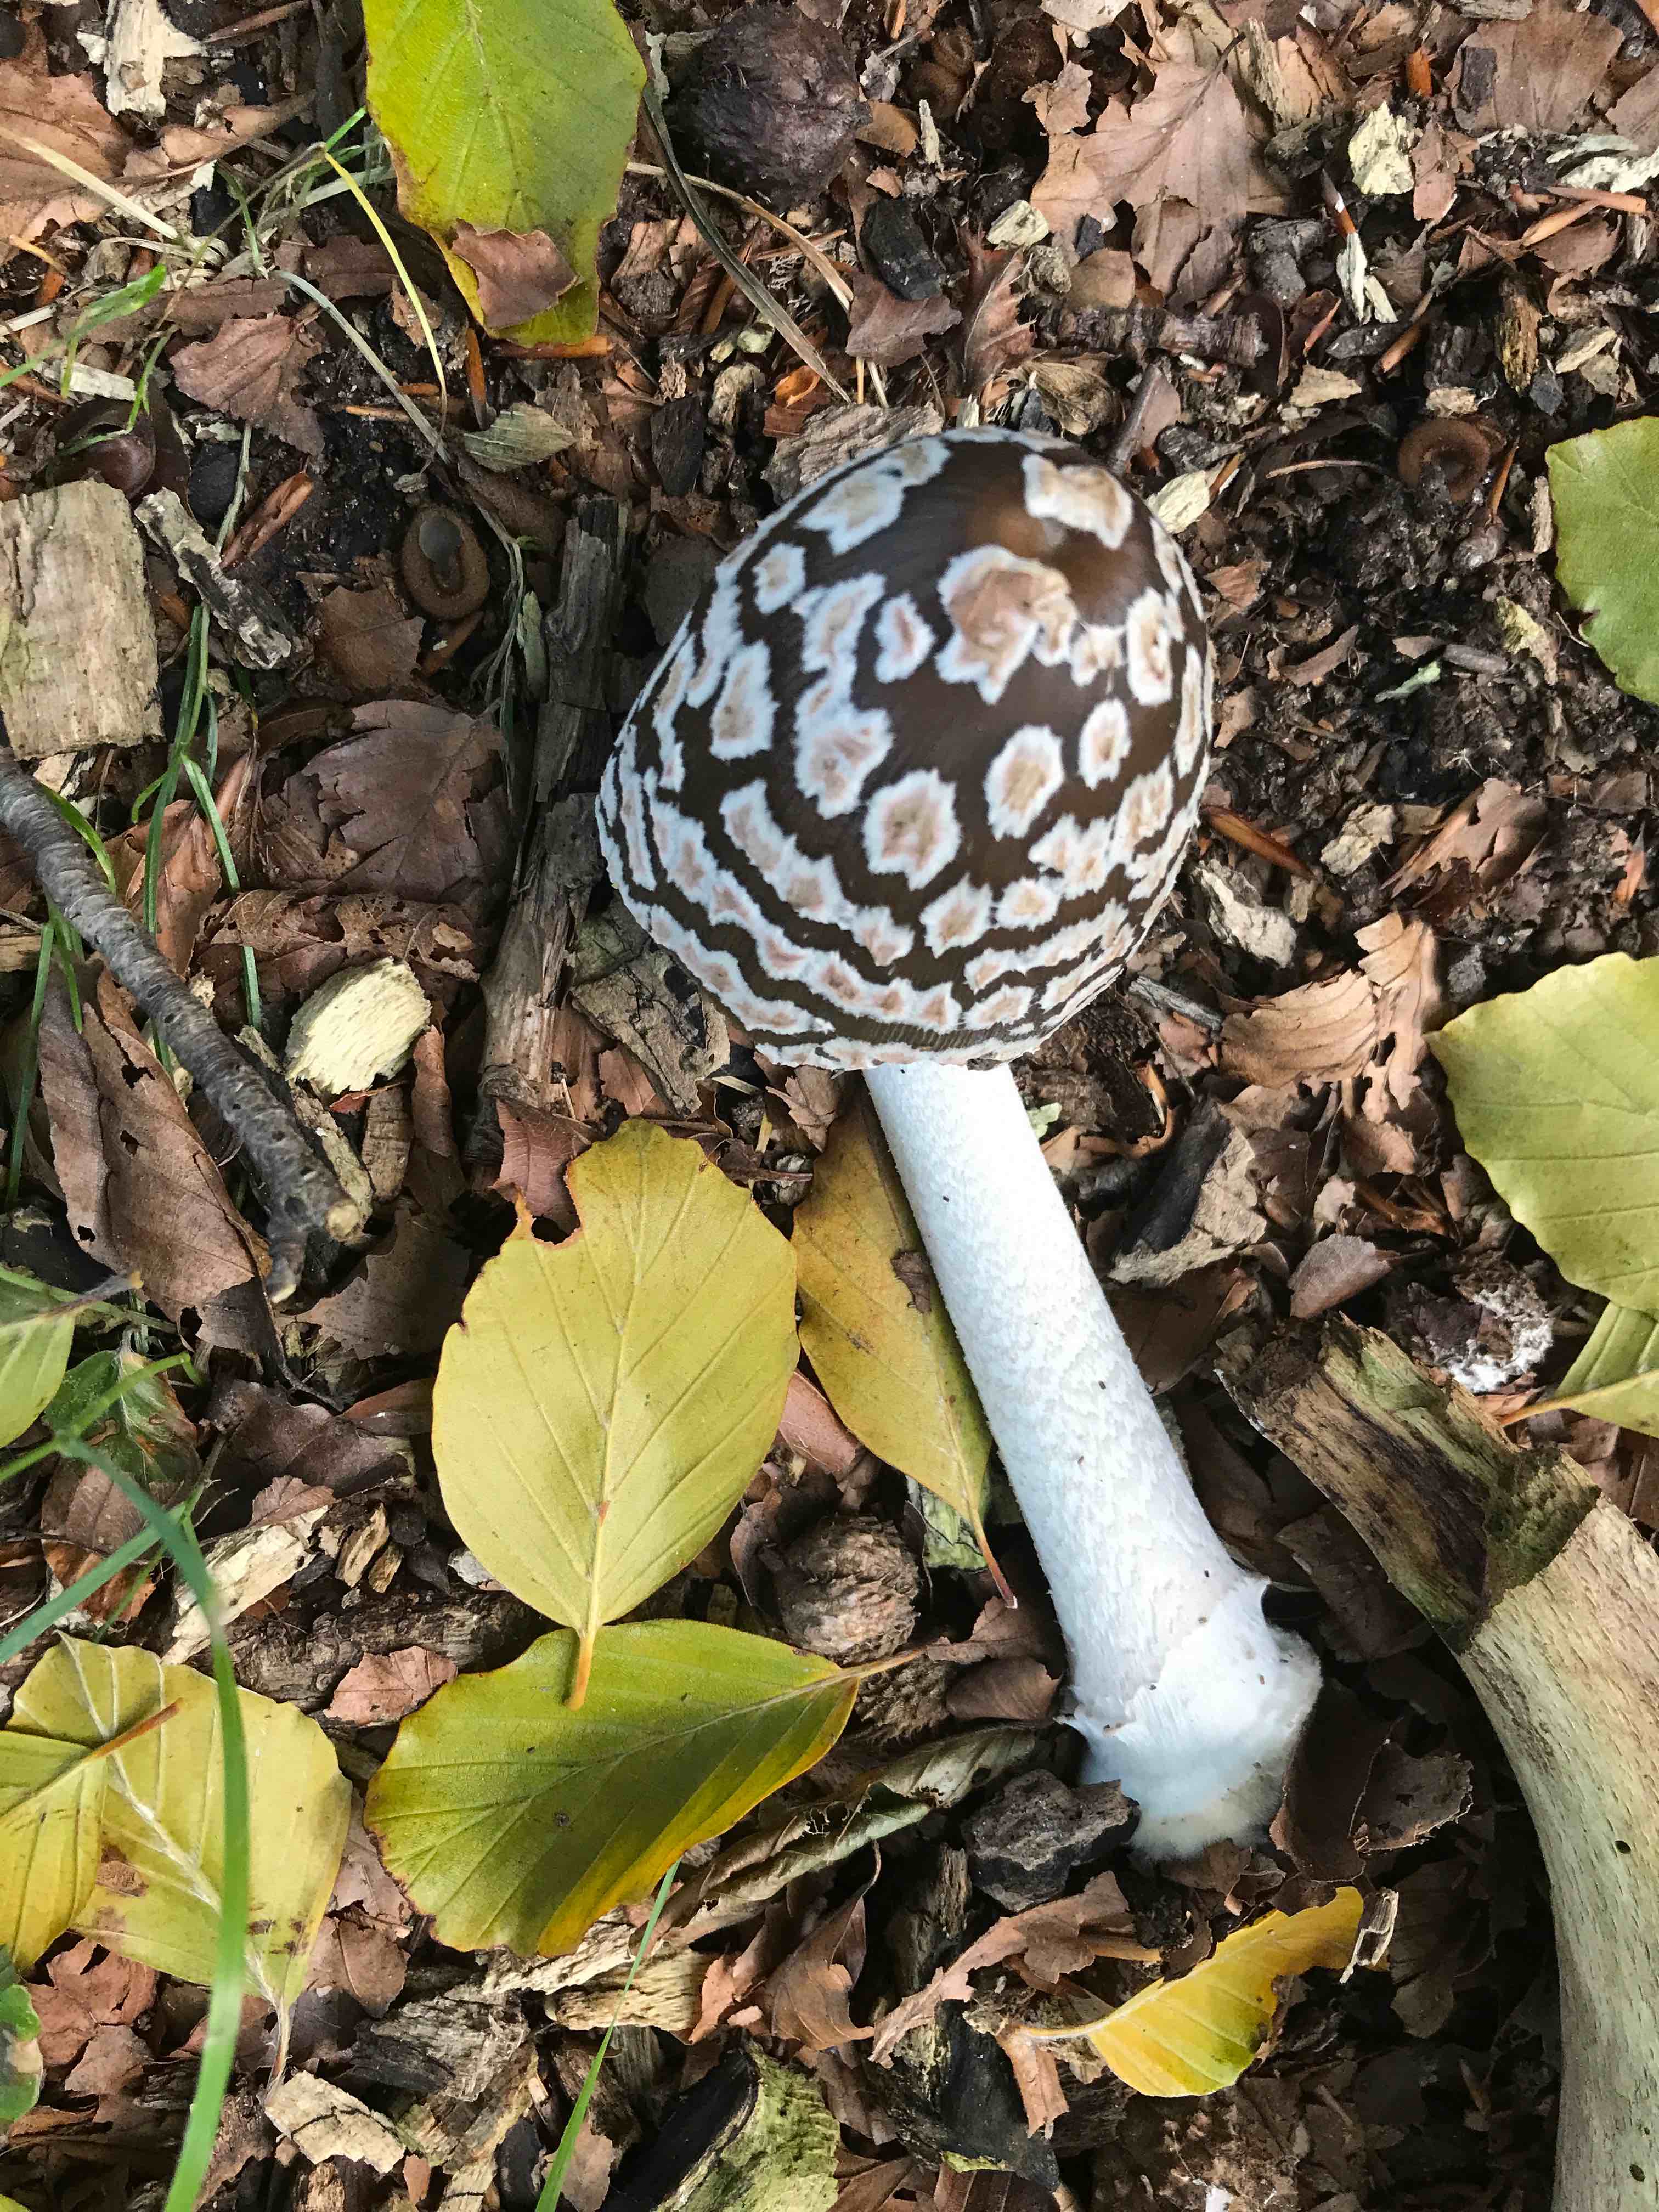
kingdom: Fungi
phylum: Basidiomycota
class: Agaricomycetes
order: Agaricales
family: Psathyrellaceae
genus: Coprinopsis
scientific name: Coprinopsis picacea
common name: skade-blækhat
